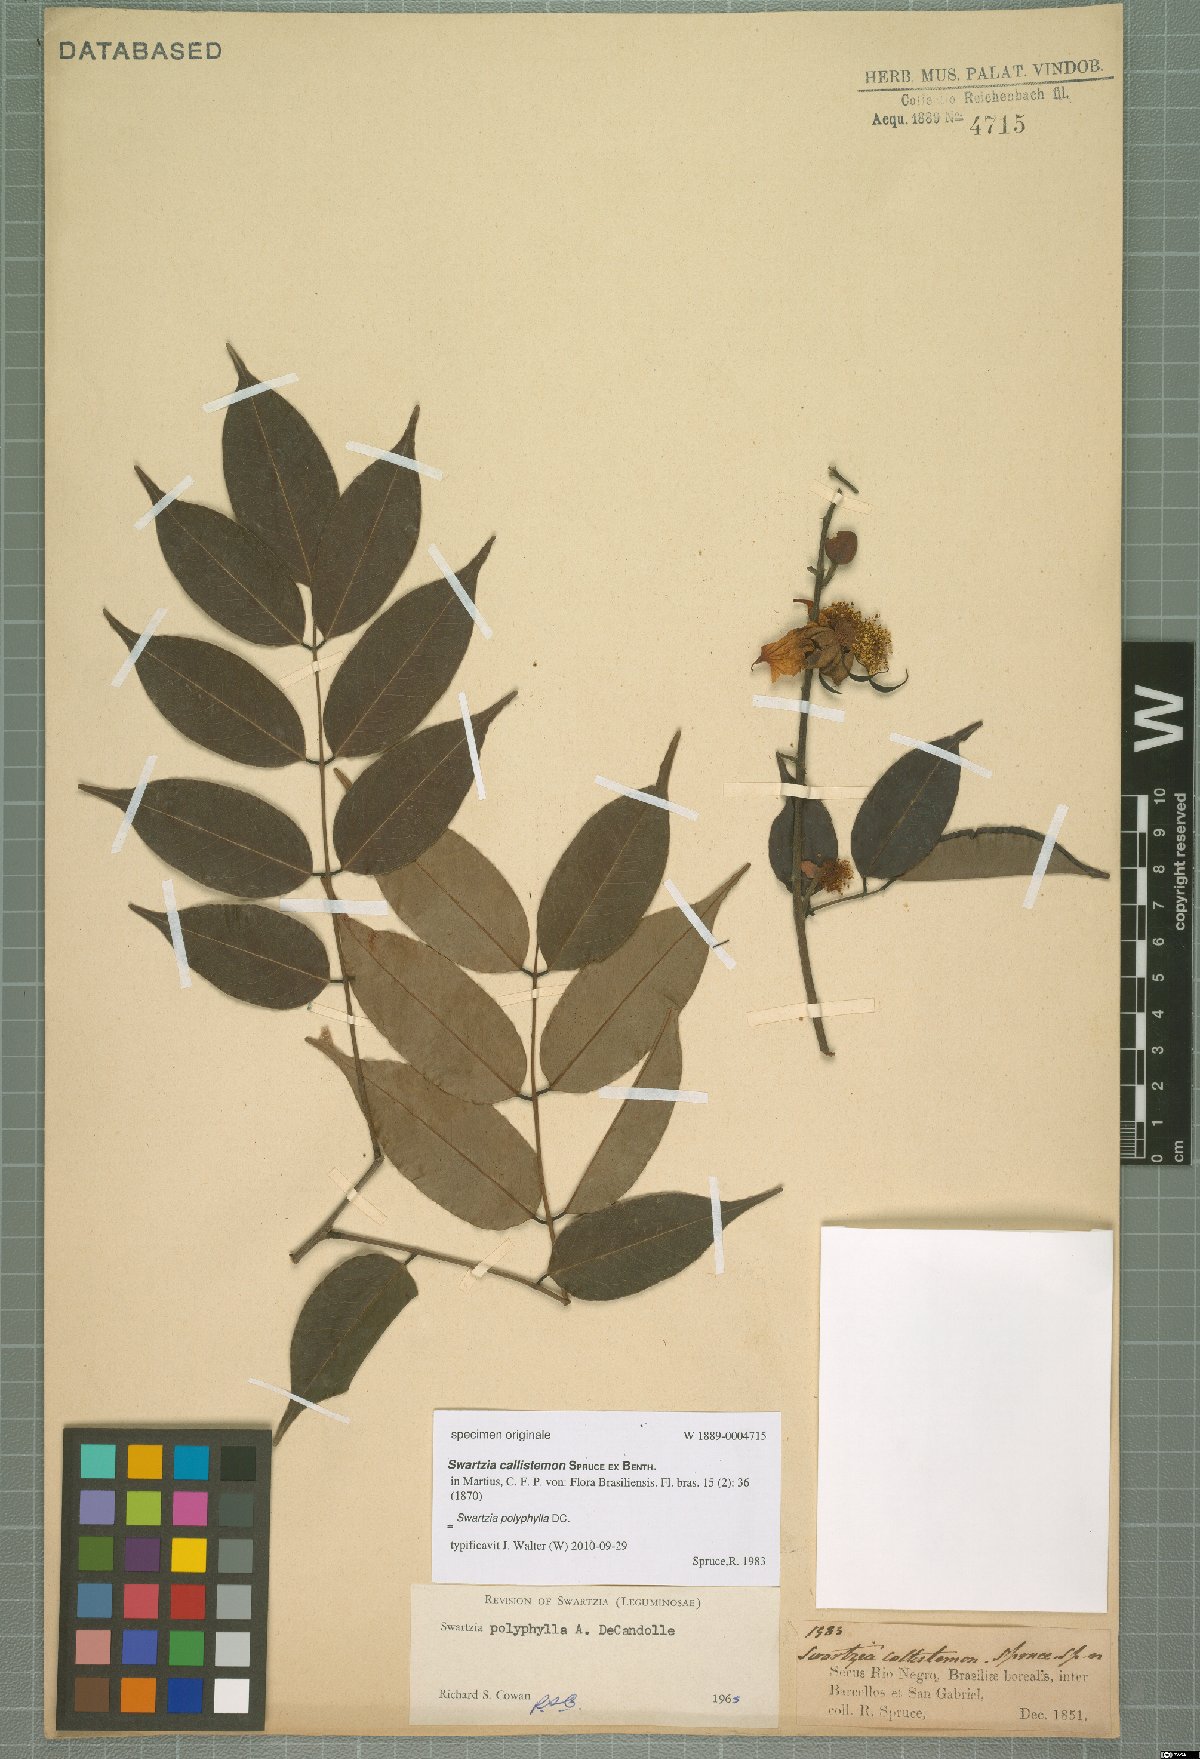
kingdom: Plantae
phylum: Tracheophyta
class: Magnoliopsida
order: Fabales
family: Fabaceae
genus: Swartzia
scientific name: Swartzia polyphylla
